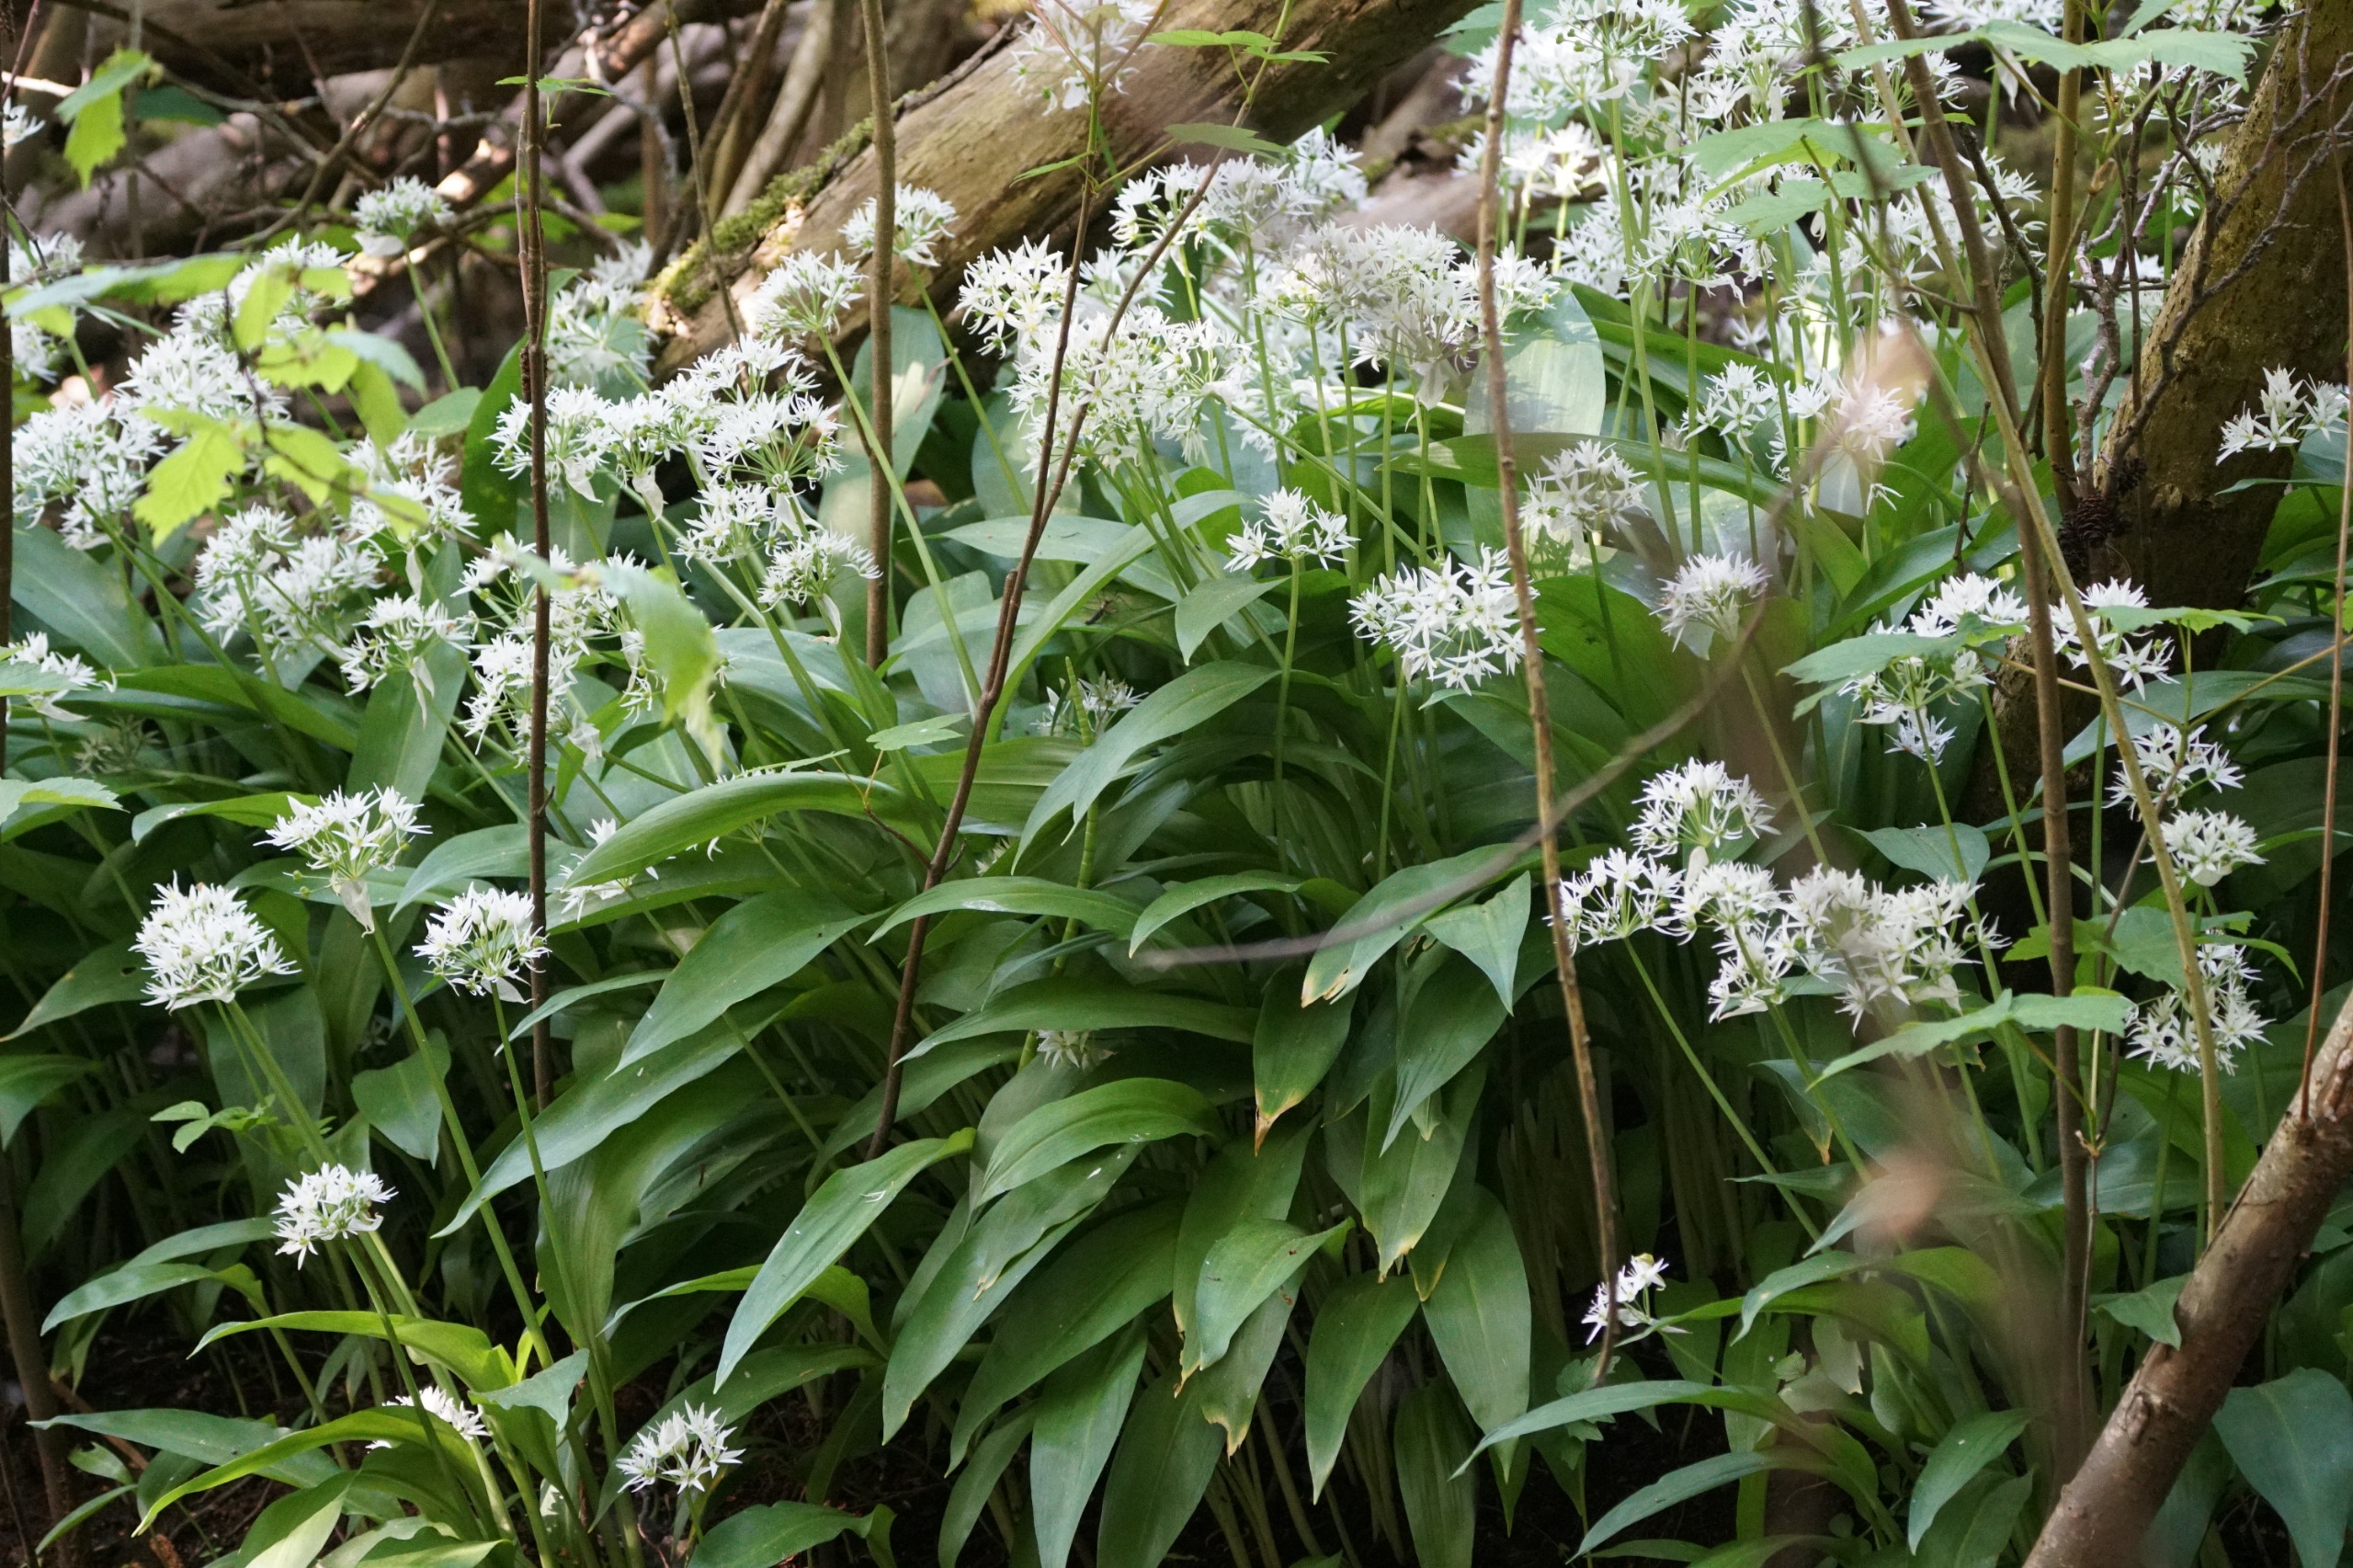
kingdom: Plantae
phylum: Tracheophyta
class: Liliopsida
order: Asparagales
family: Amaryllidaceae
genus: Allium
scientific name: Allium ursinum
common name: Rams-løg
